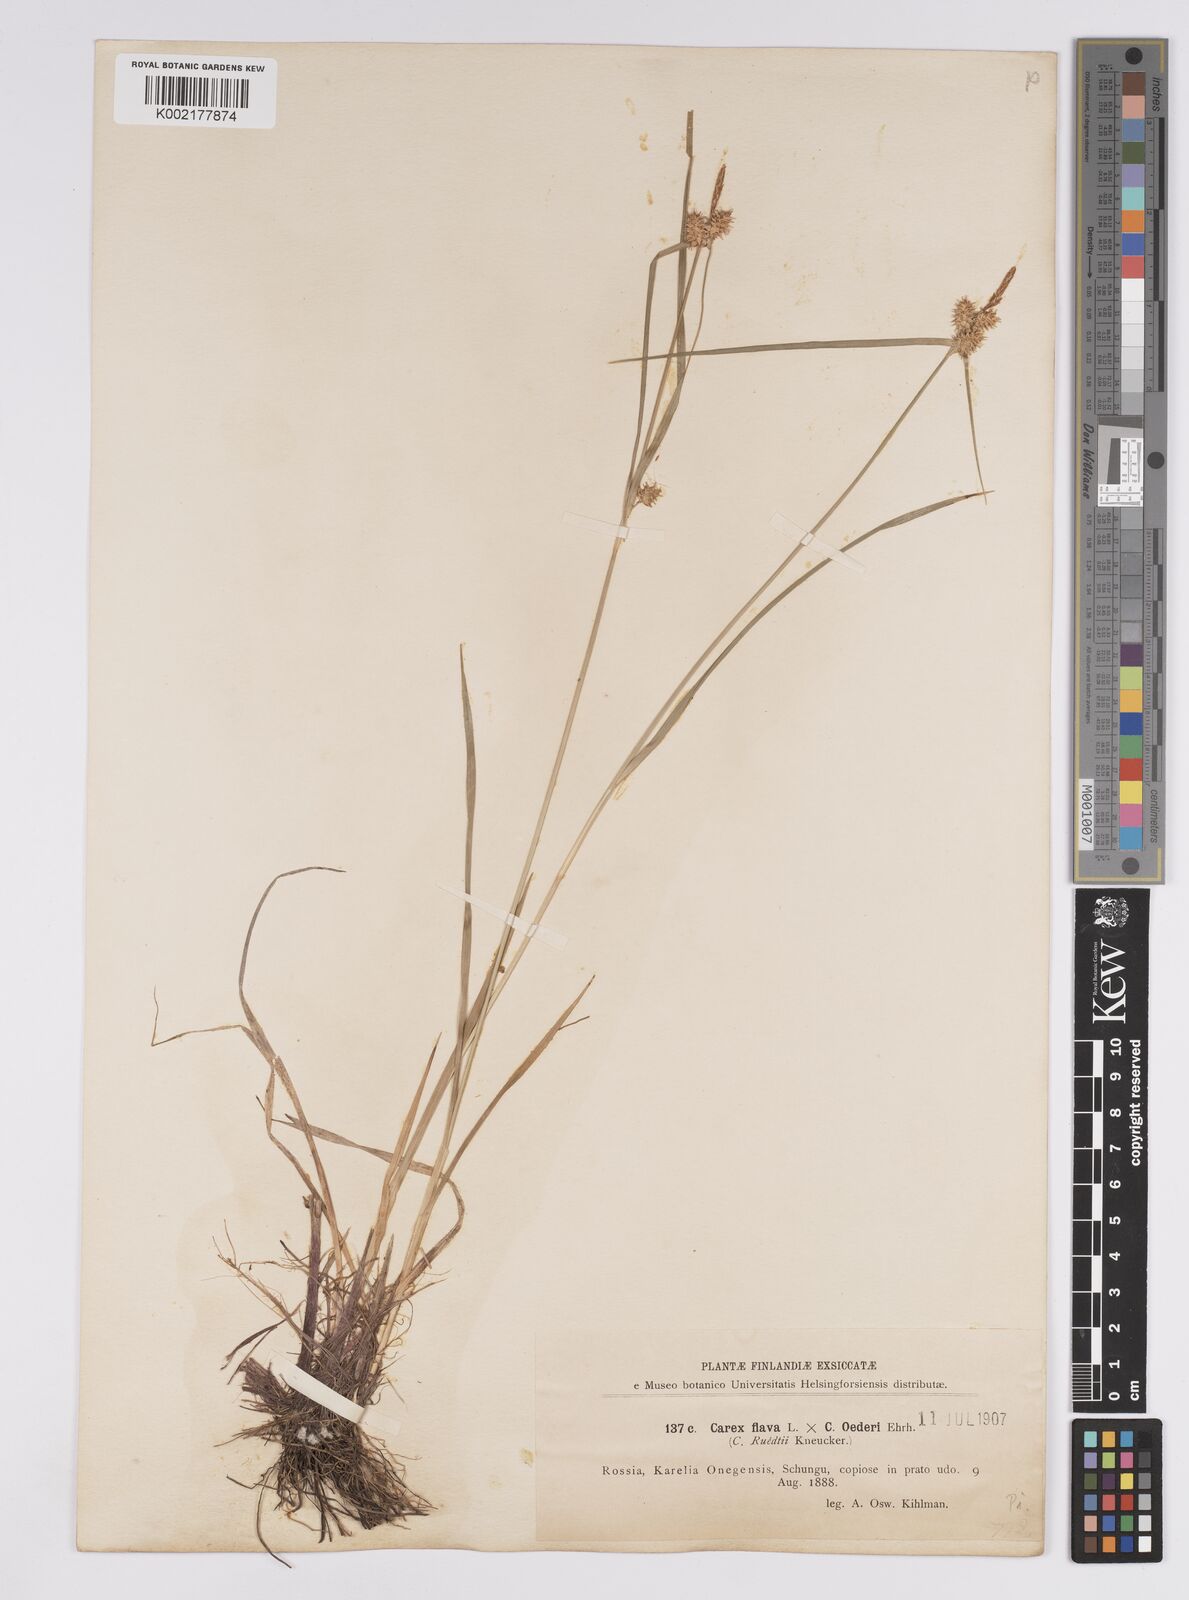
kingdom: Plantae
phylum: Tracheophyta
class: Liliopsida
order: Poales
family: Cyperaceae
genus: Carex
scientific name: Carex flava
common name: Large yellow-sedge
